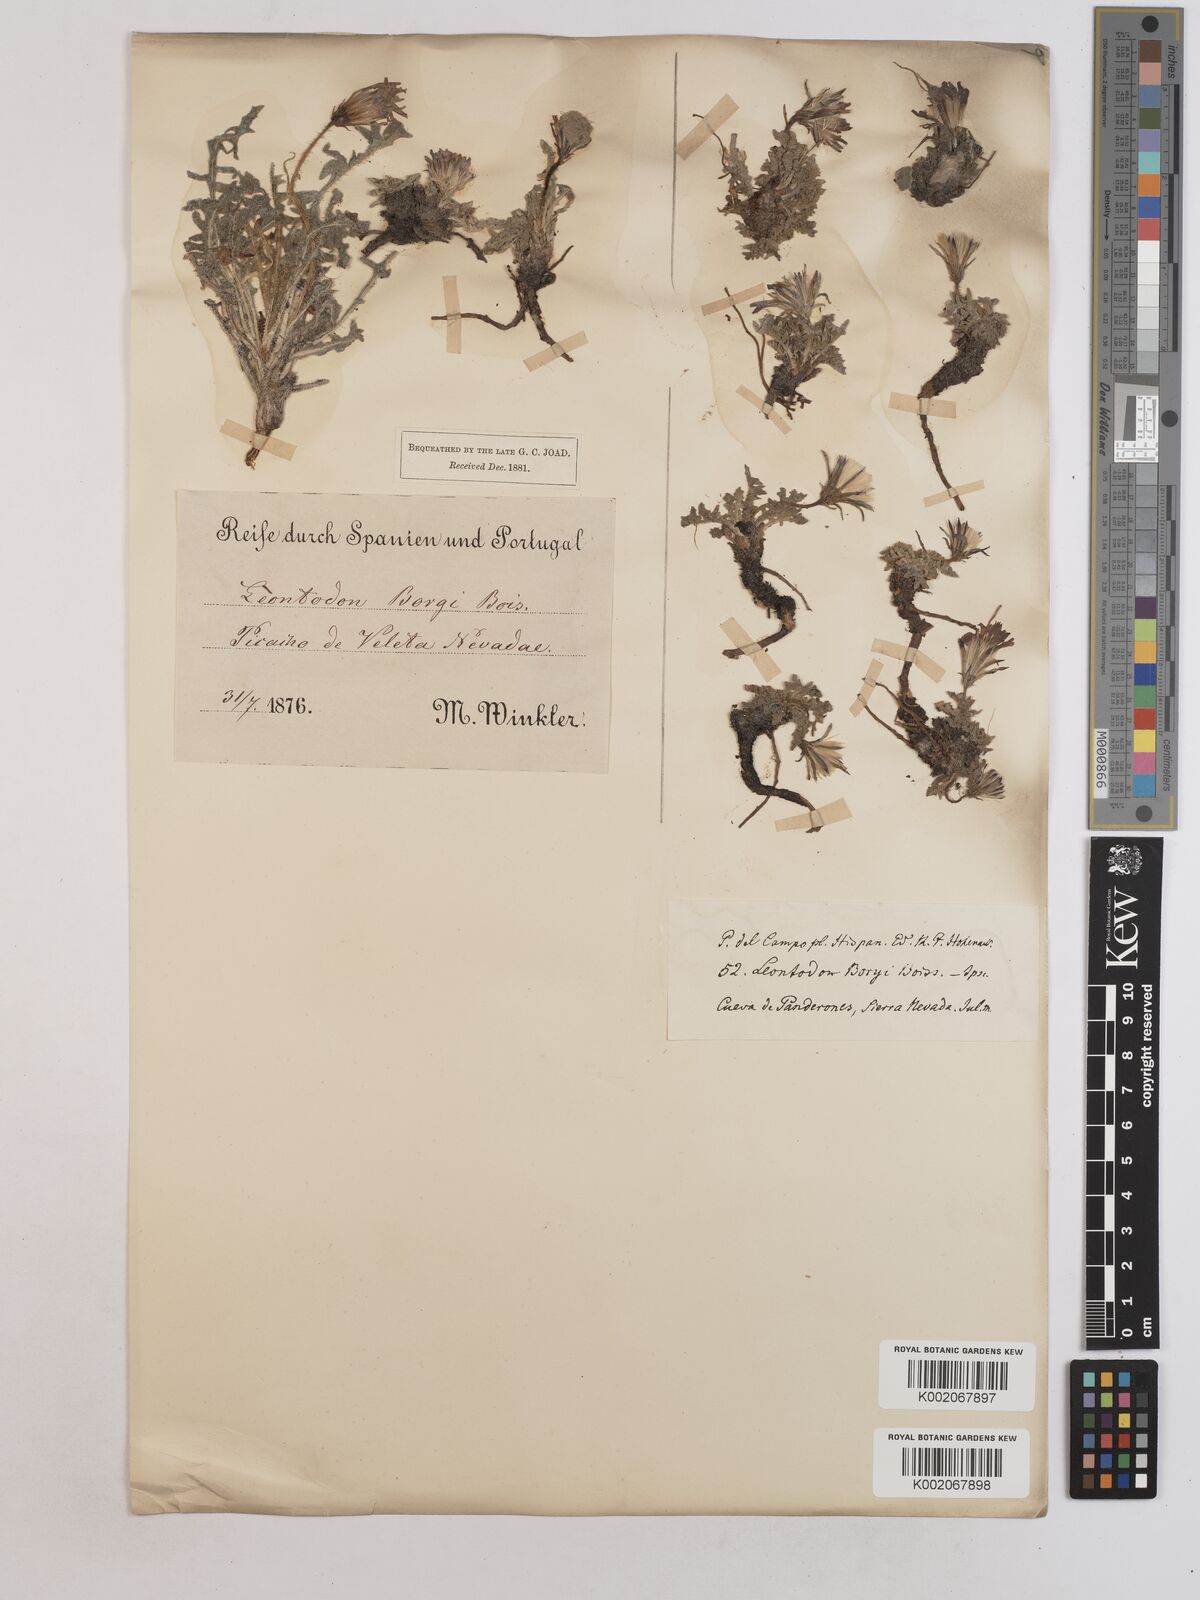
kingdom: Plantae
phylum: Tracheophyta
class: Magnoliopsida
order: Asterales
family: Asteraceae
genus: Leontodon
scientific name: Leontodon boryi
